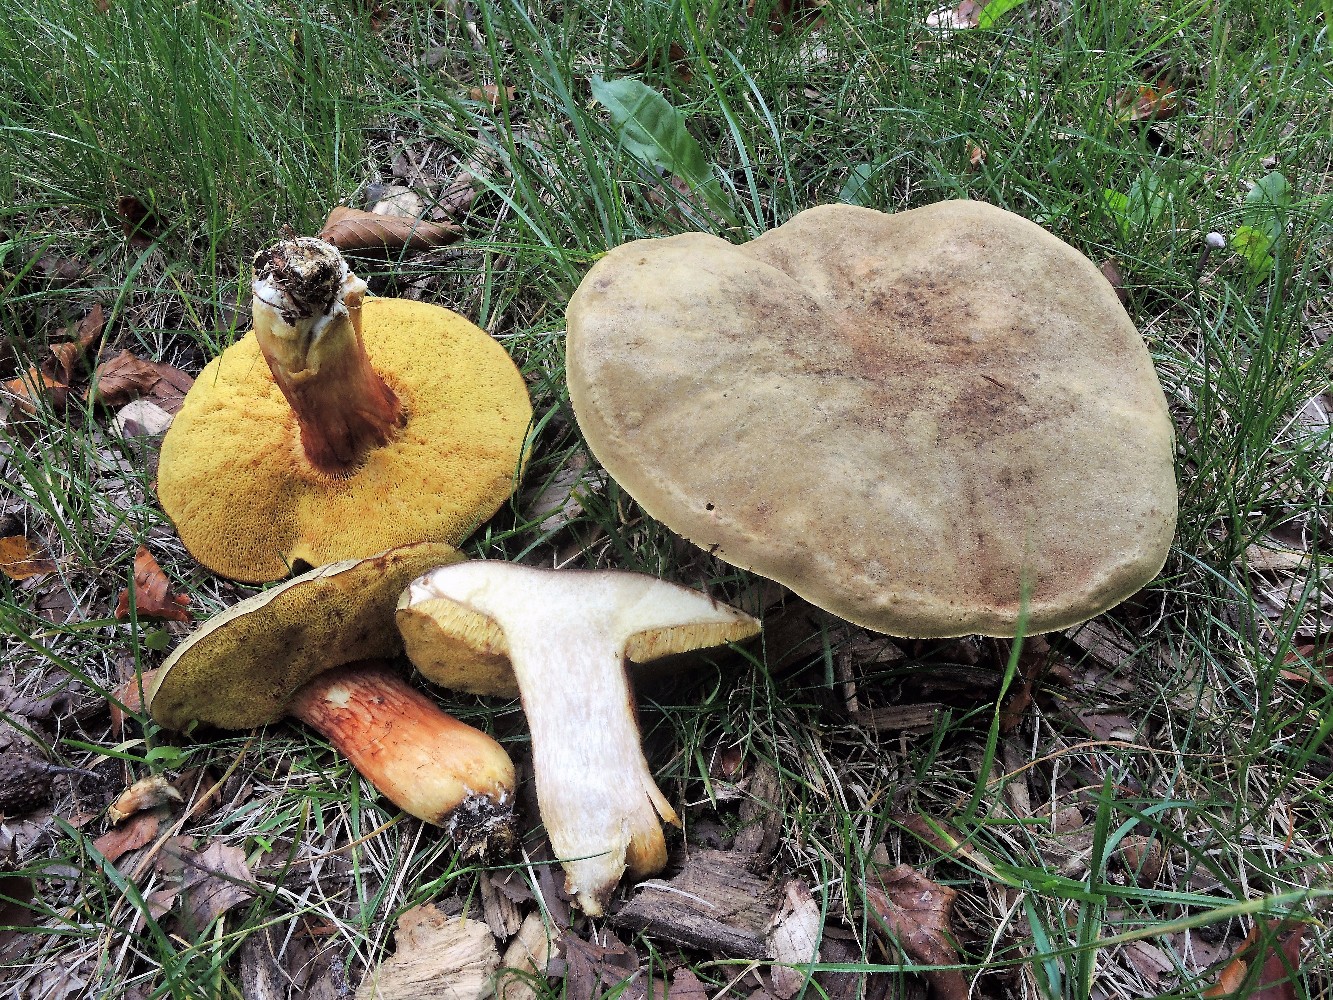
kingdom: Fungi
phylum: Basidiomycota
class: Agaricomycetes
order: Boletales
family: Boletaceae
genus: Xerocomus
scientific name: Xerocomus subtomentosus
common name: filtet rørhat
